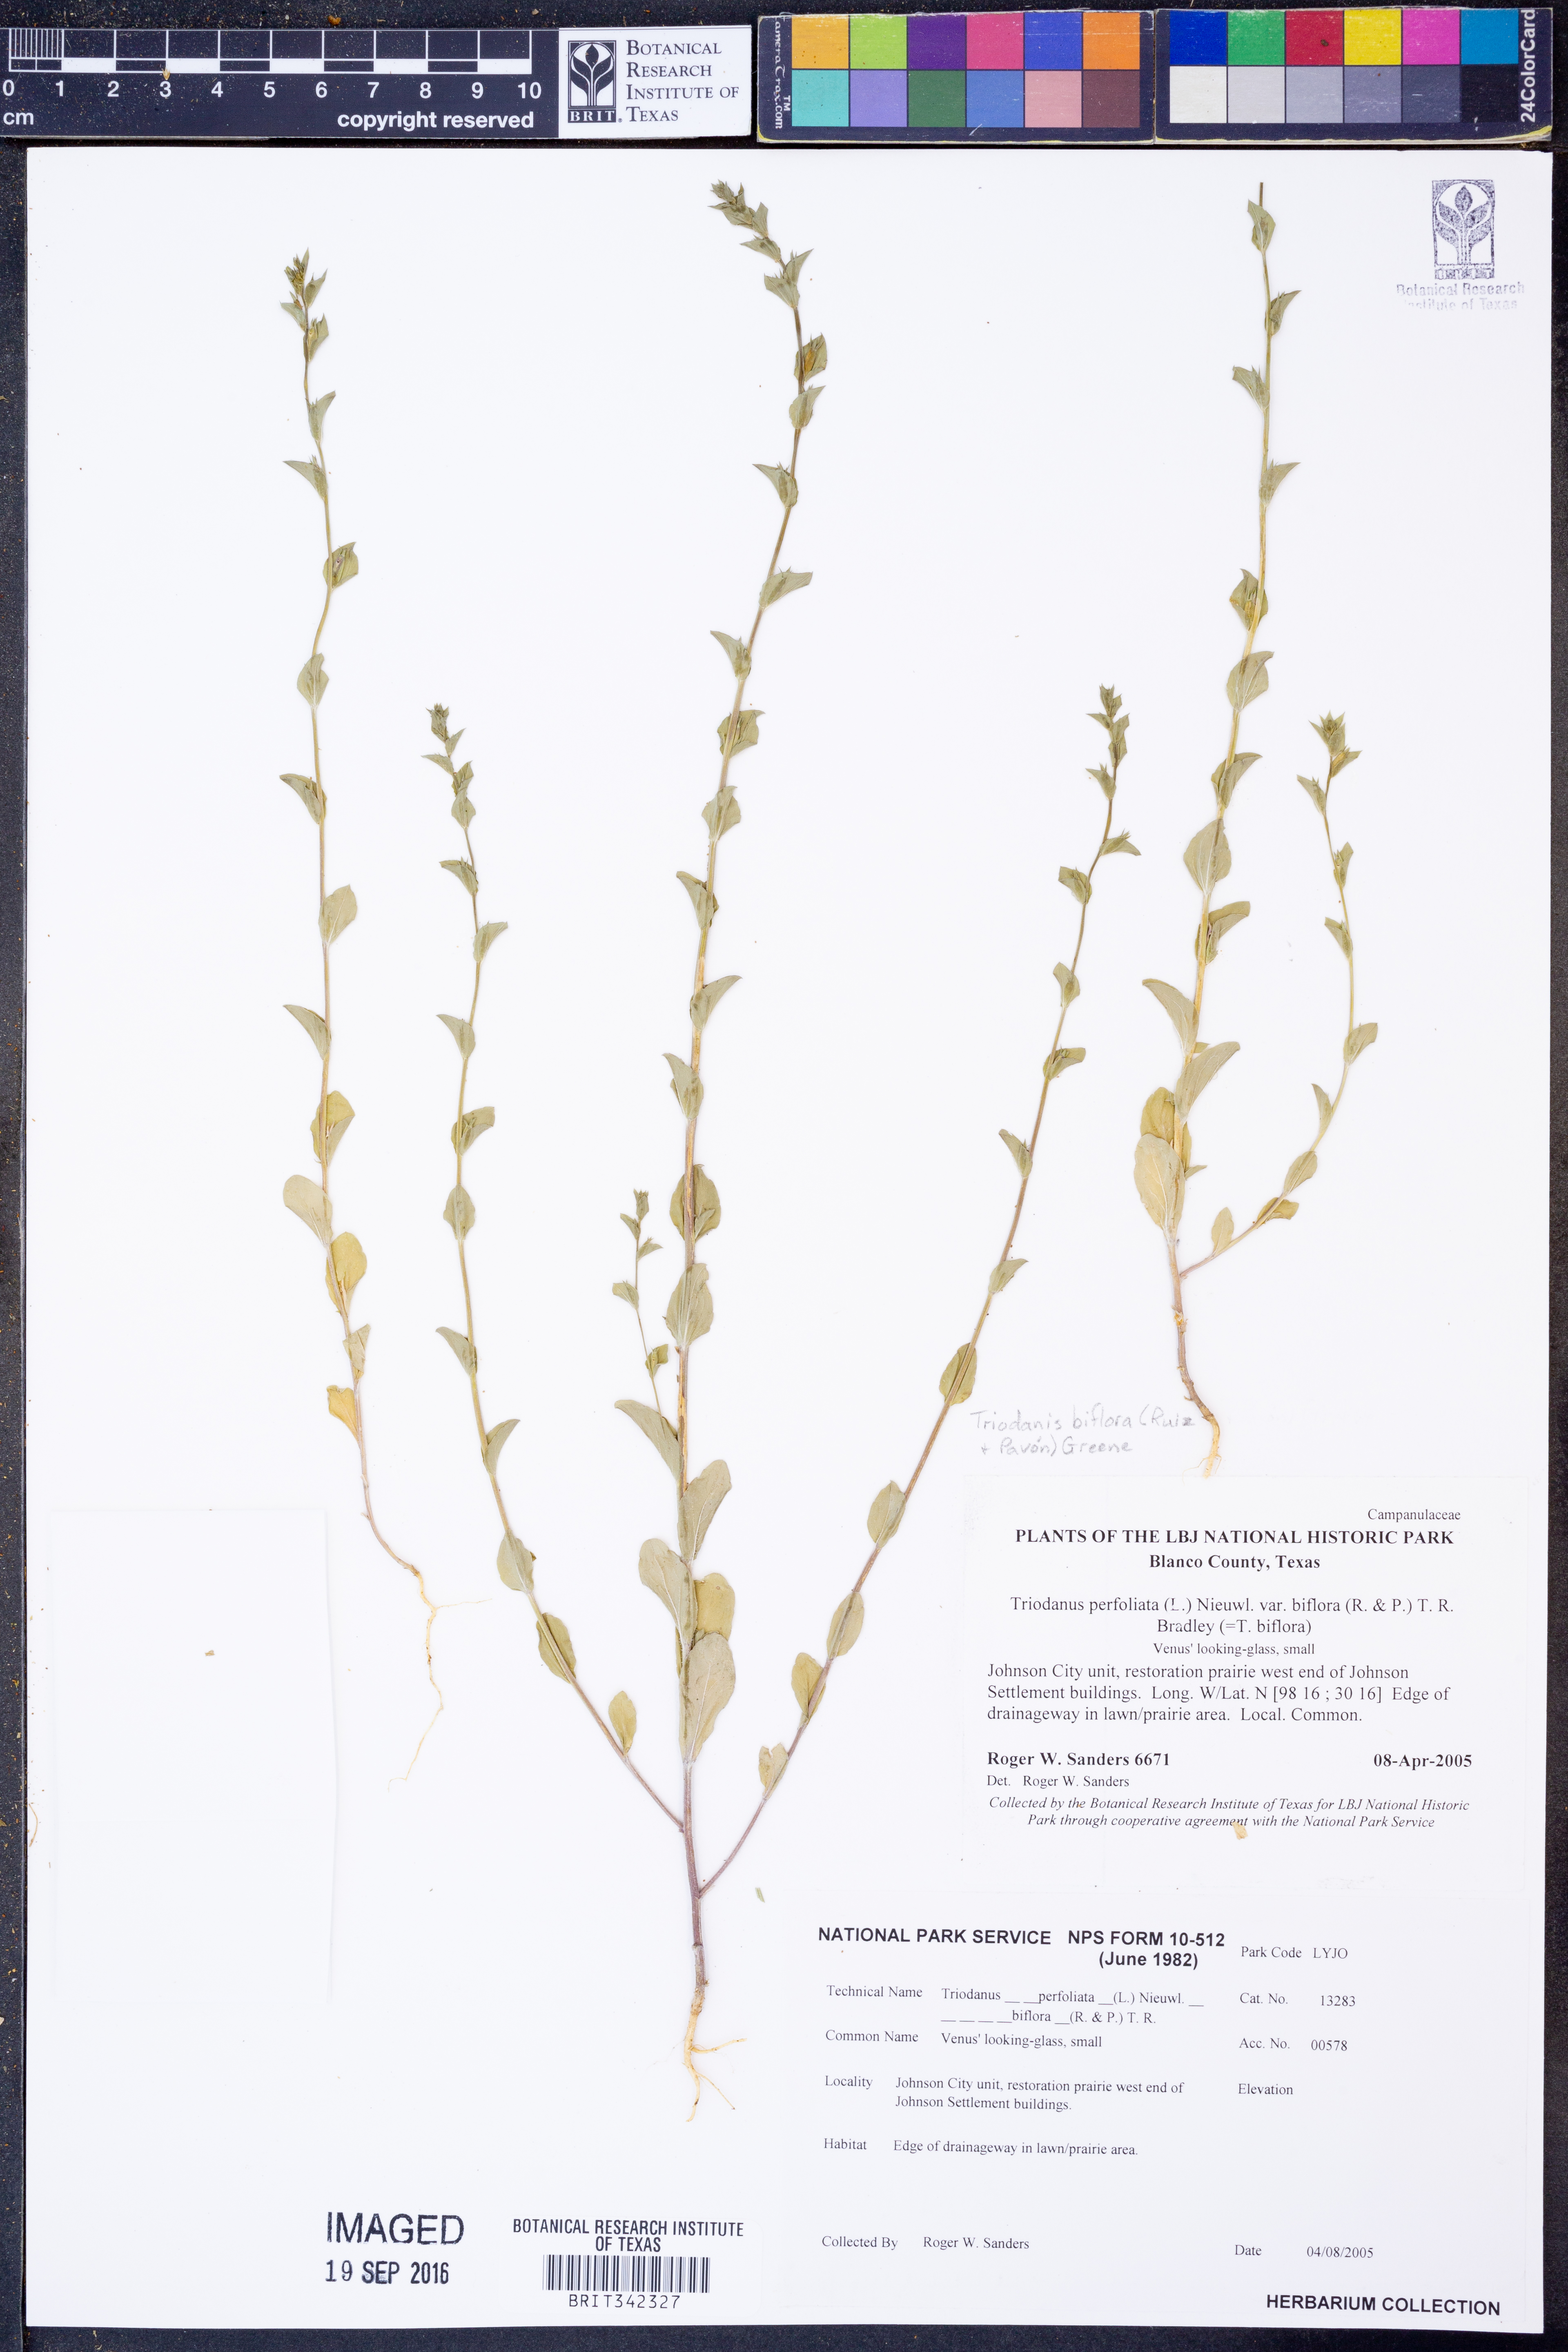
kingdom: Plantae
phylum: Tracheophyta
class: Magnoliopsida
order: Asterales
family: Campanulaceae
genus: Triodanis
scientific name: Triodanis perfoliata
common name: Clasping venus' looking-glass
